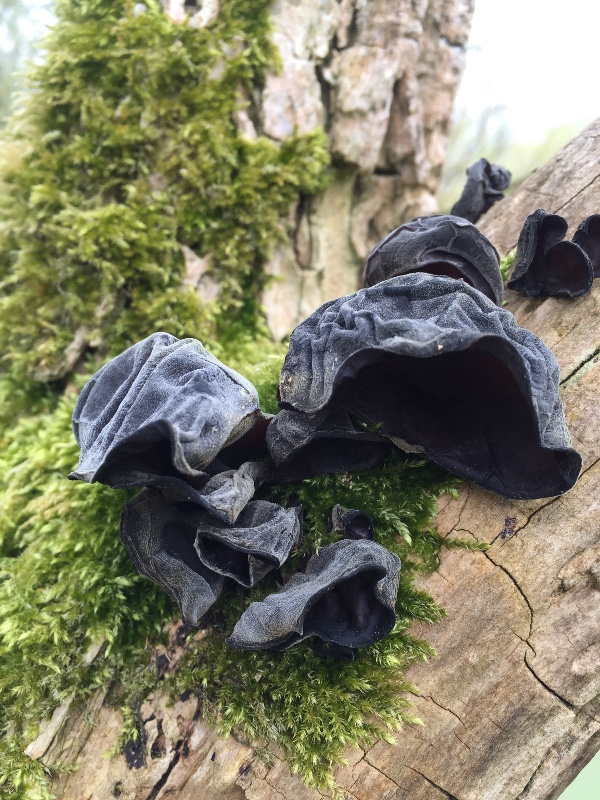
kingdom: Fungi
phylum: Basidiomycota
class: Agaricomycetes
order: Auriculariales
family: Auriculariaceae
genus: Auricularia
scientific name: Auricularia auricula-judae
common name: almindelig judasøre
